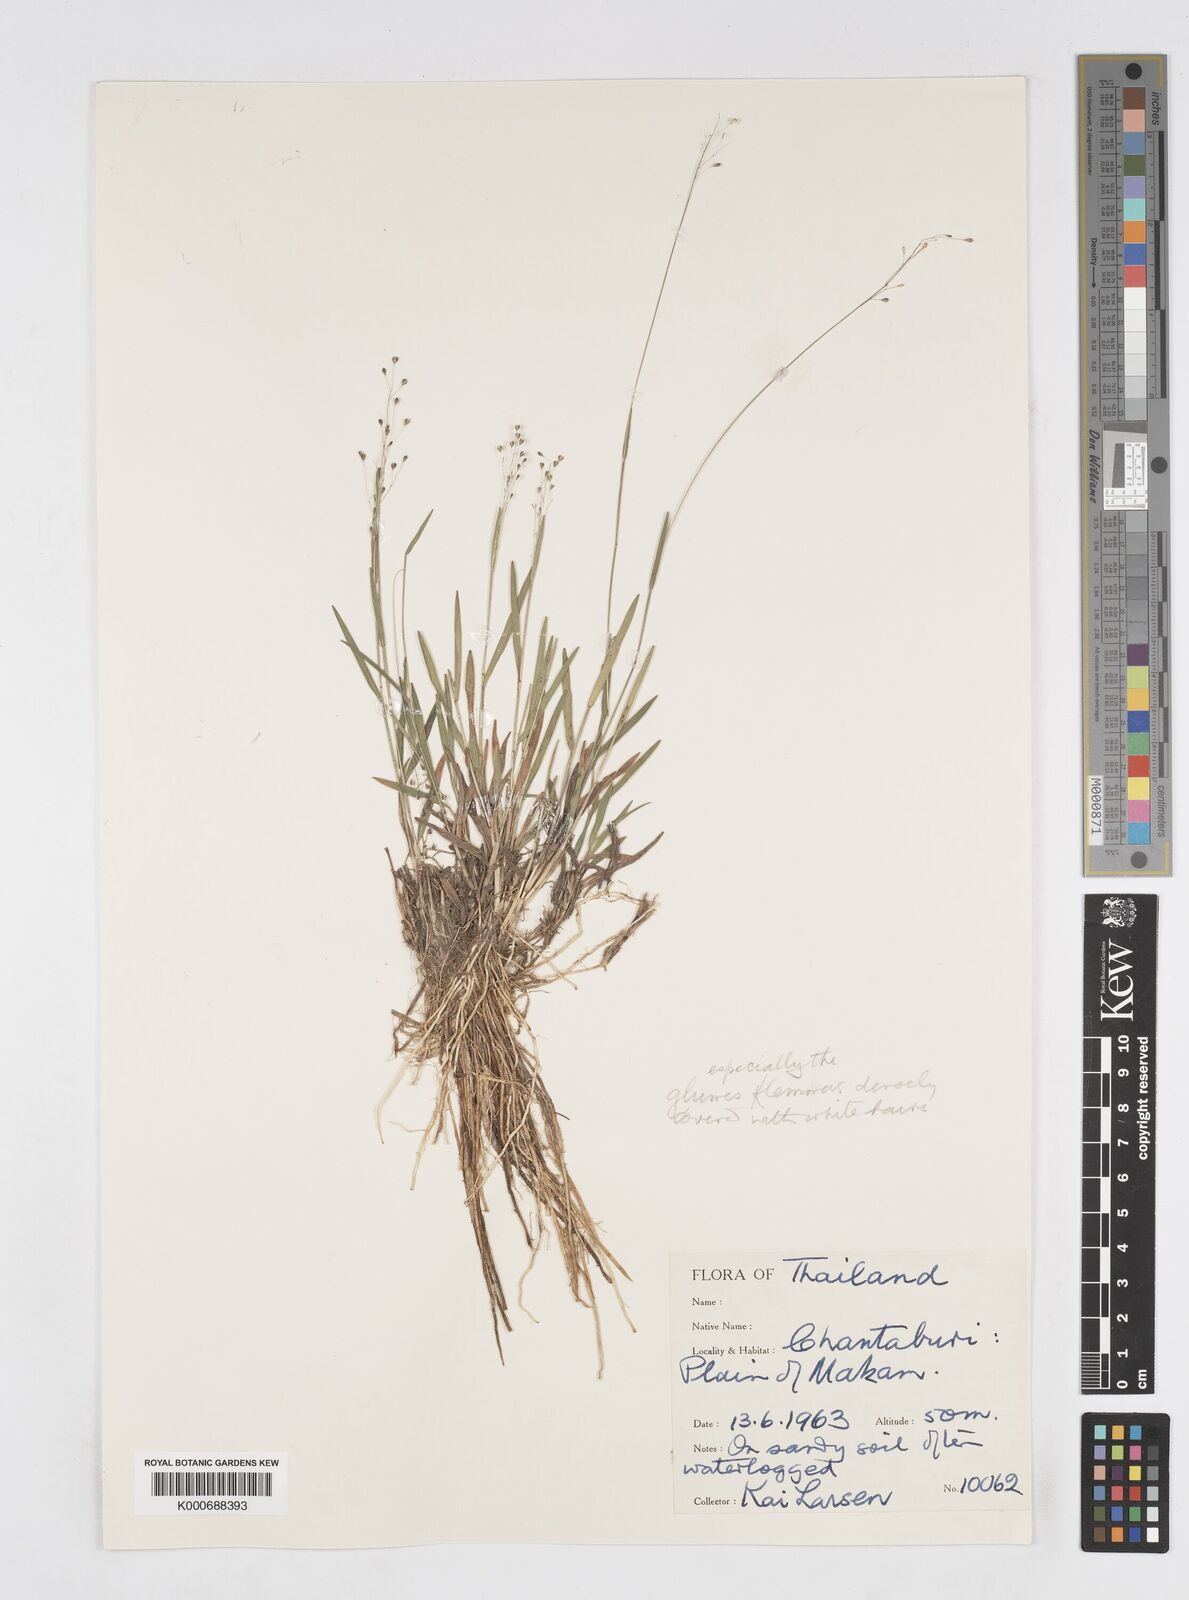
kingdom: Plantae
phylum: Tracheophyta
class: Liliopsida
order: Poales
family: Poaceae
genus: Isachne
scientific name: Isachne puberula
